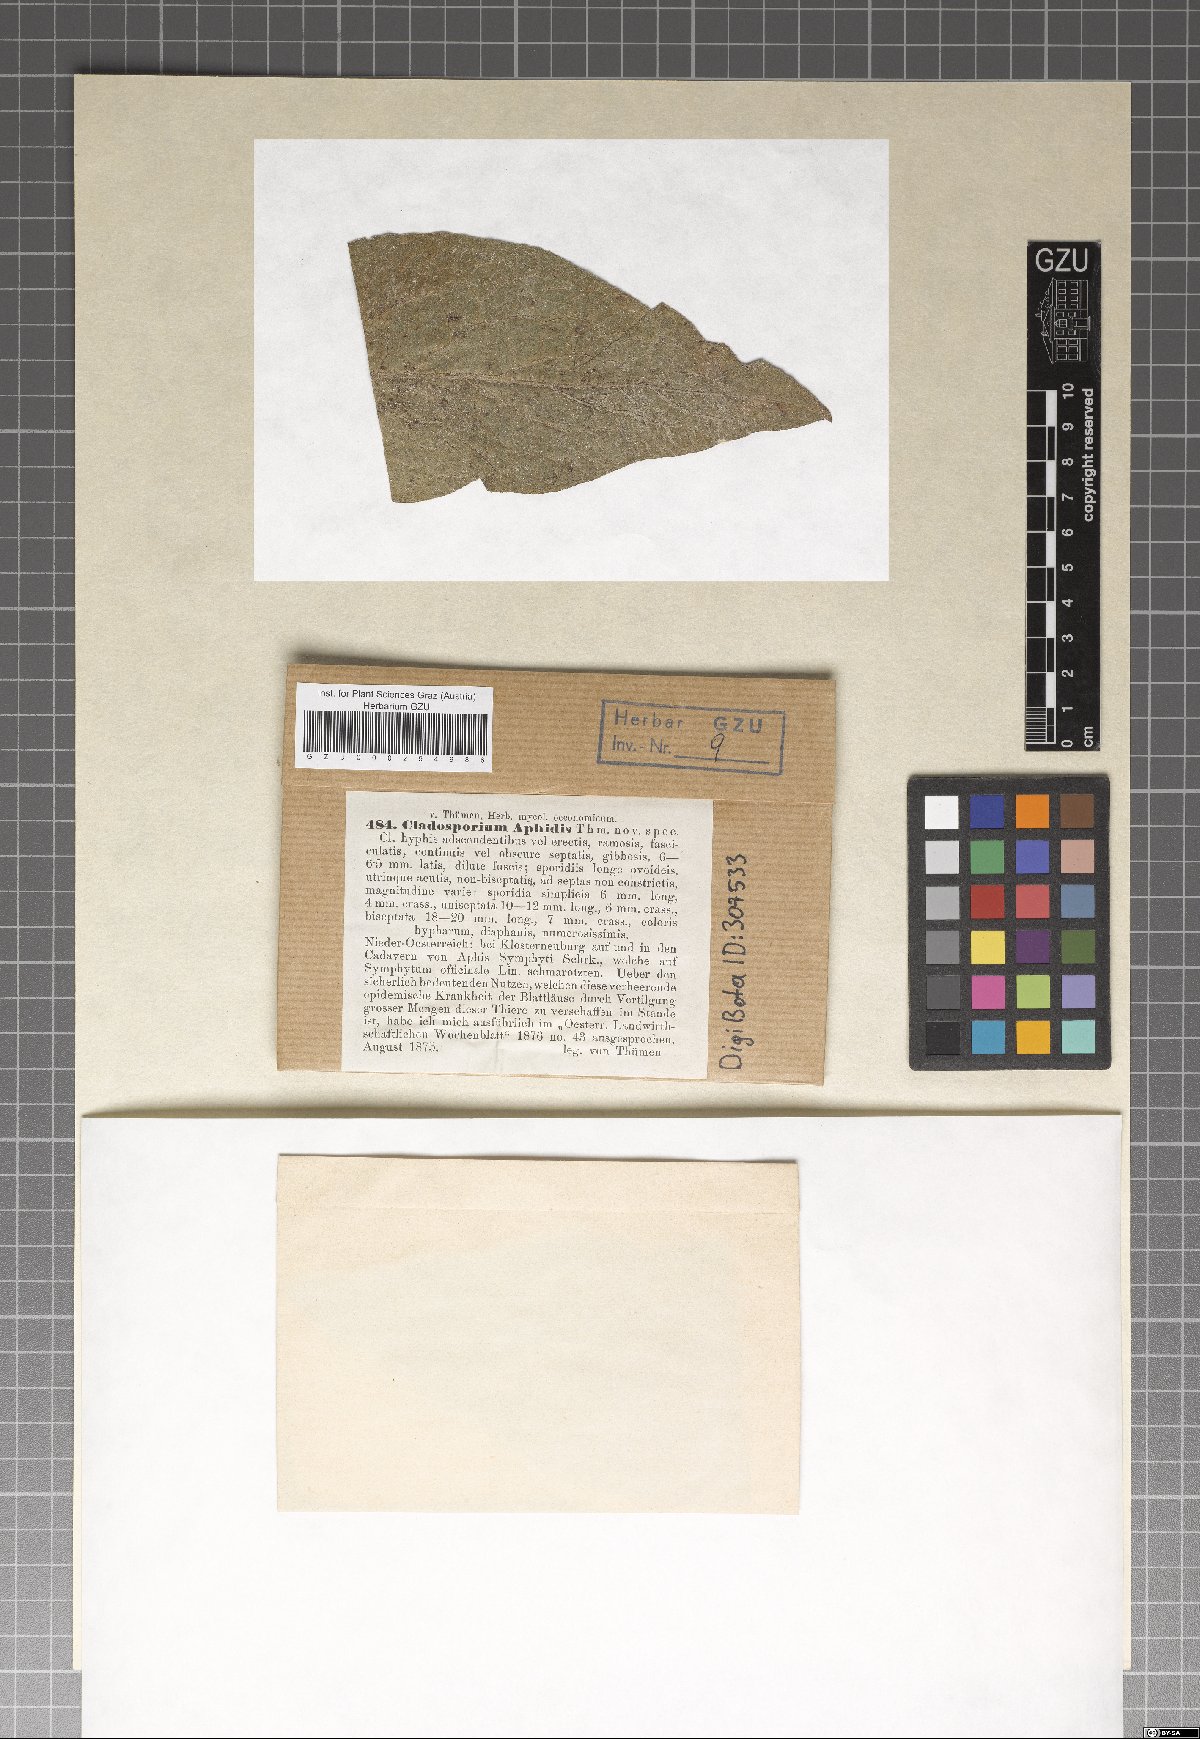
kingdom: Fungi
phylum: Ascomycota
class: Dothideomycetes
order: Capnodiales
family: Cladosporiaceae
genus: Cladosporium
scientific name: Cladosporium aphidis
